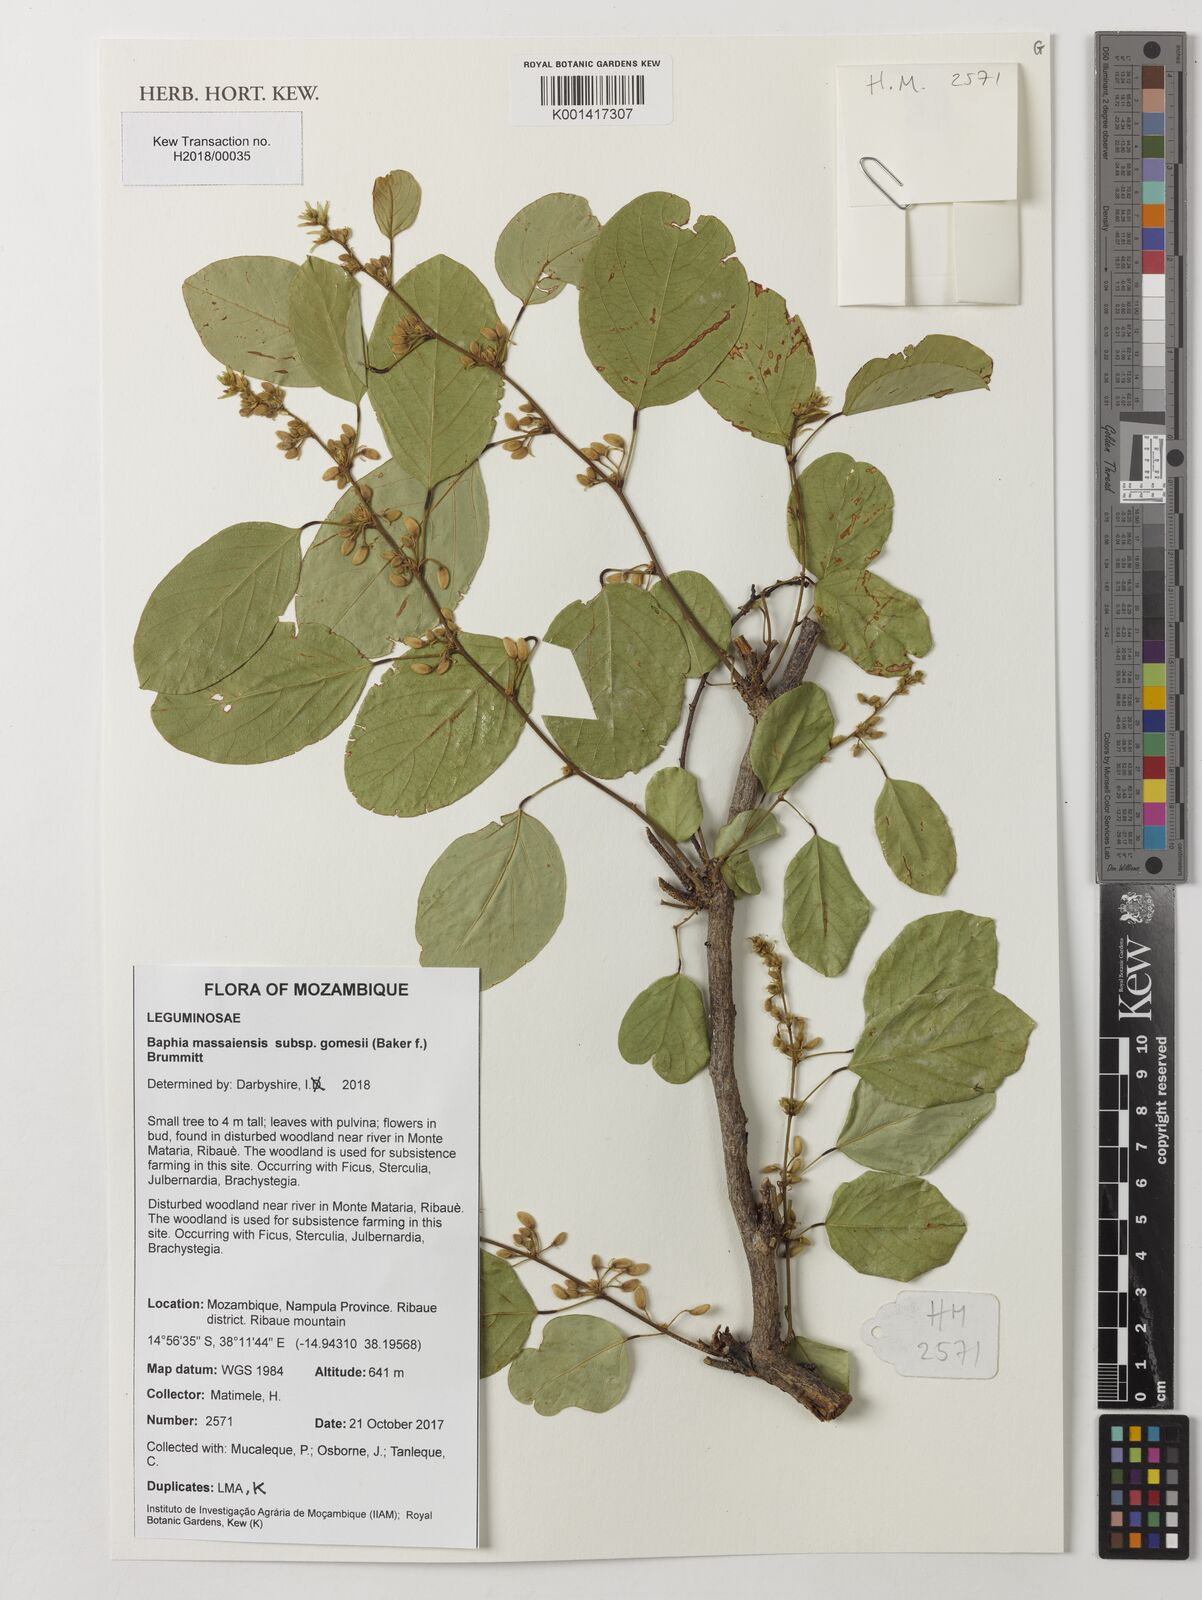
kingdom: Plantae
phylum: Tracheophyta
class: Magnoliopsida
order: Fabales
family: Fabaceae
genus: Baphia
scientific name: Baphia massaiensis
